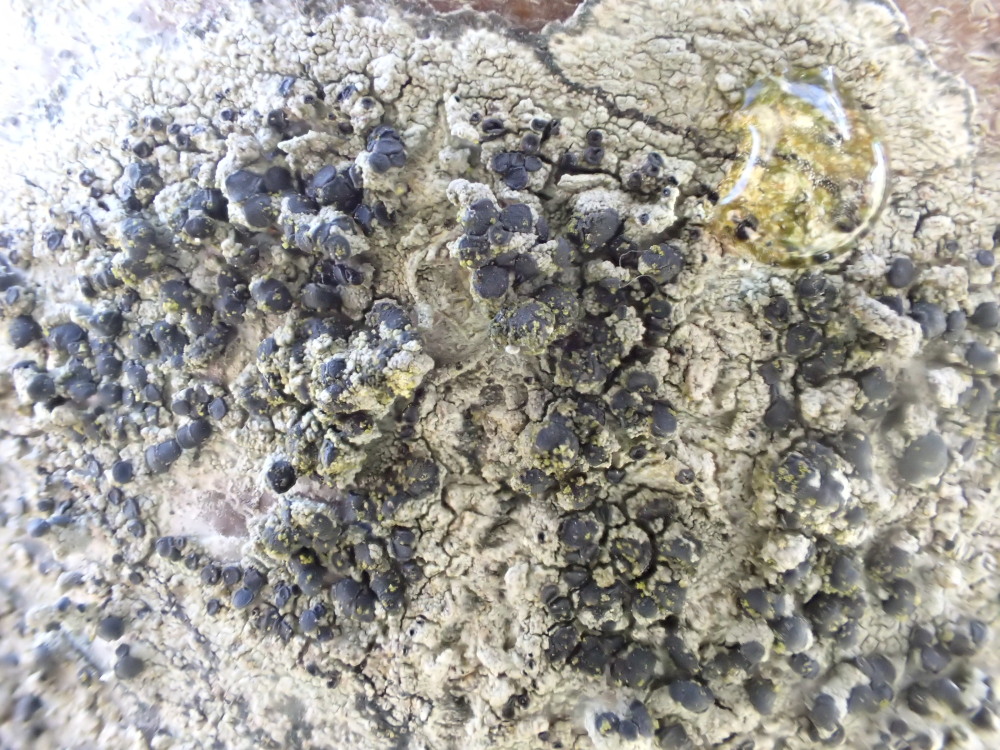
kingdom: Fungi
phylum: Ascomycota
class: Lecanoromycetes
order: Lecanorales
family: Lecanoraceae
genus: Lecidella
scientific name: Lecidella elaeochroma
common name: grågrøn skivelav
